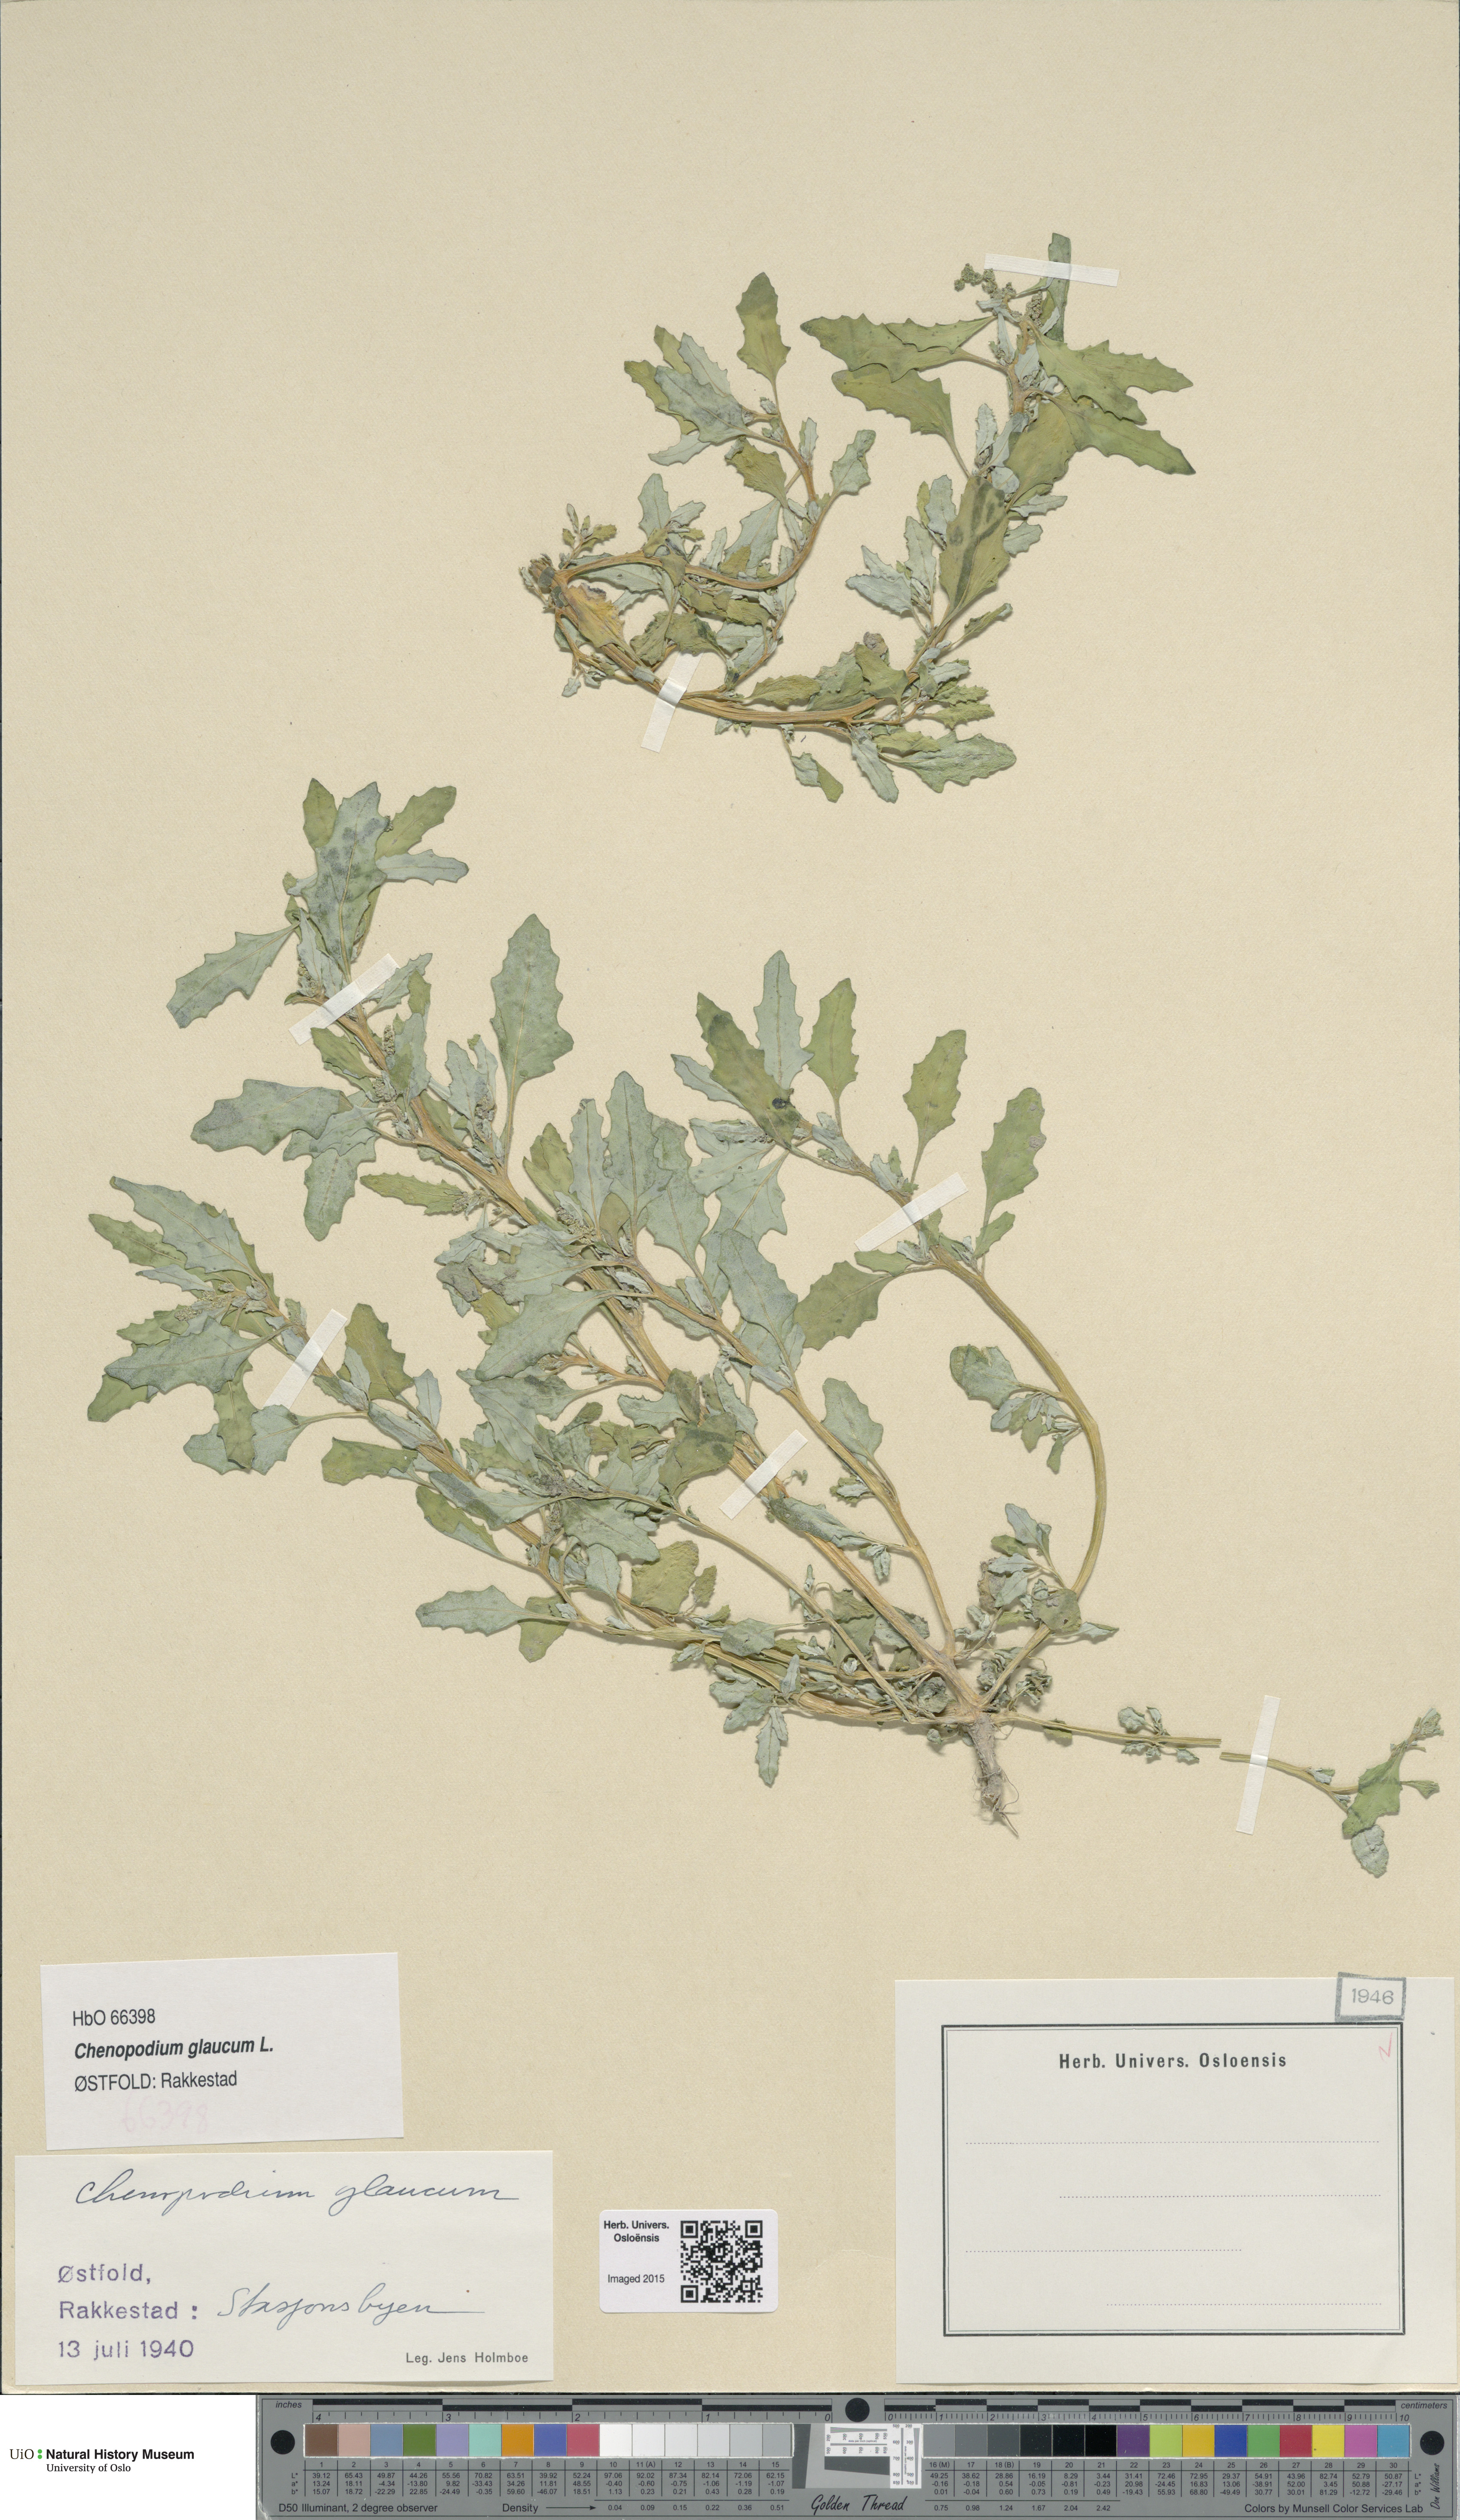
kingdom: Plantae
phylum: Tracheophyta
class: Magnoliopsida
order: Caryophyllales
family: Amaranthaceae
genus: Oxybasis
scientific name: Oxybasis glauca
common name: Glaucous goosefoot
